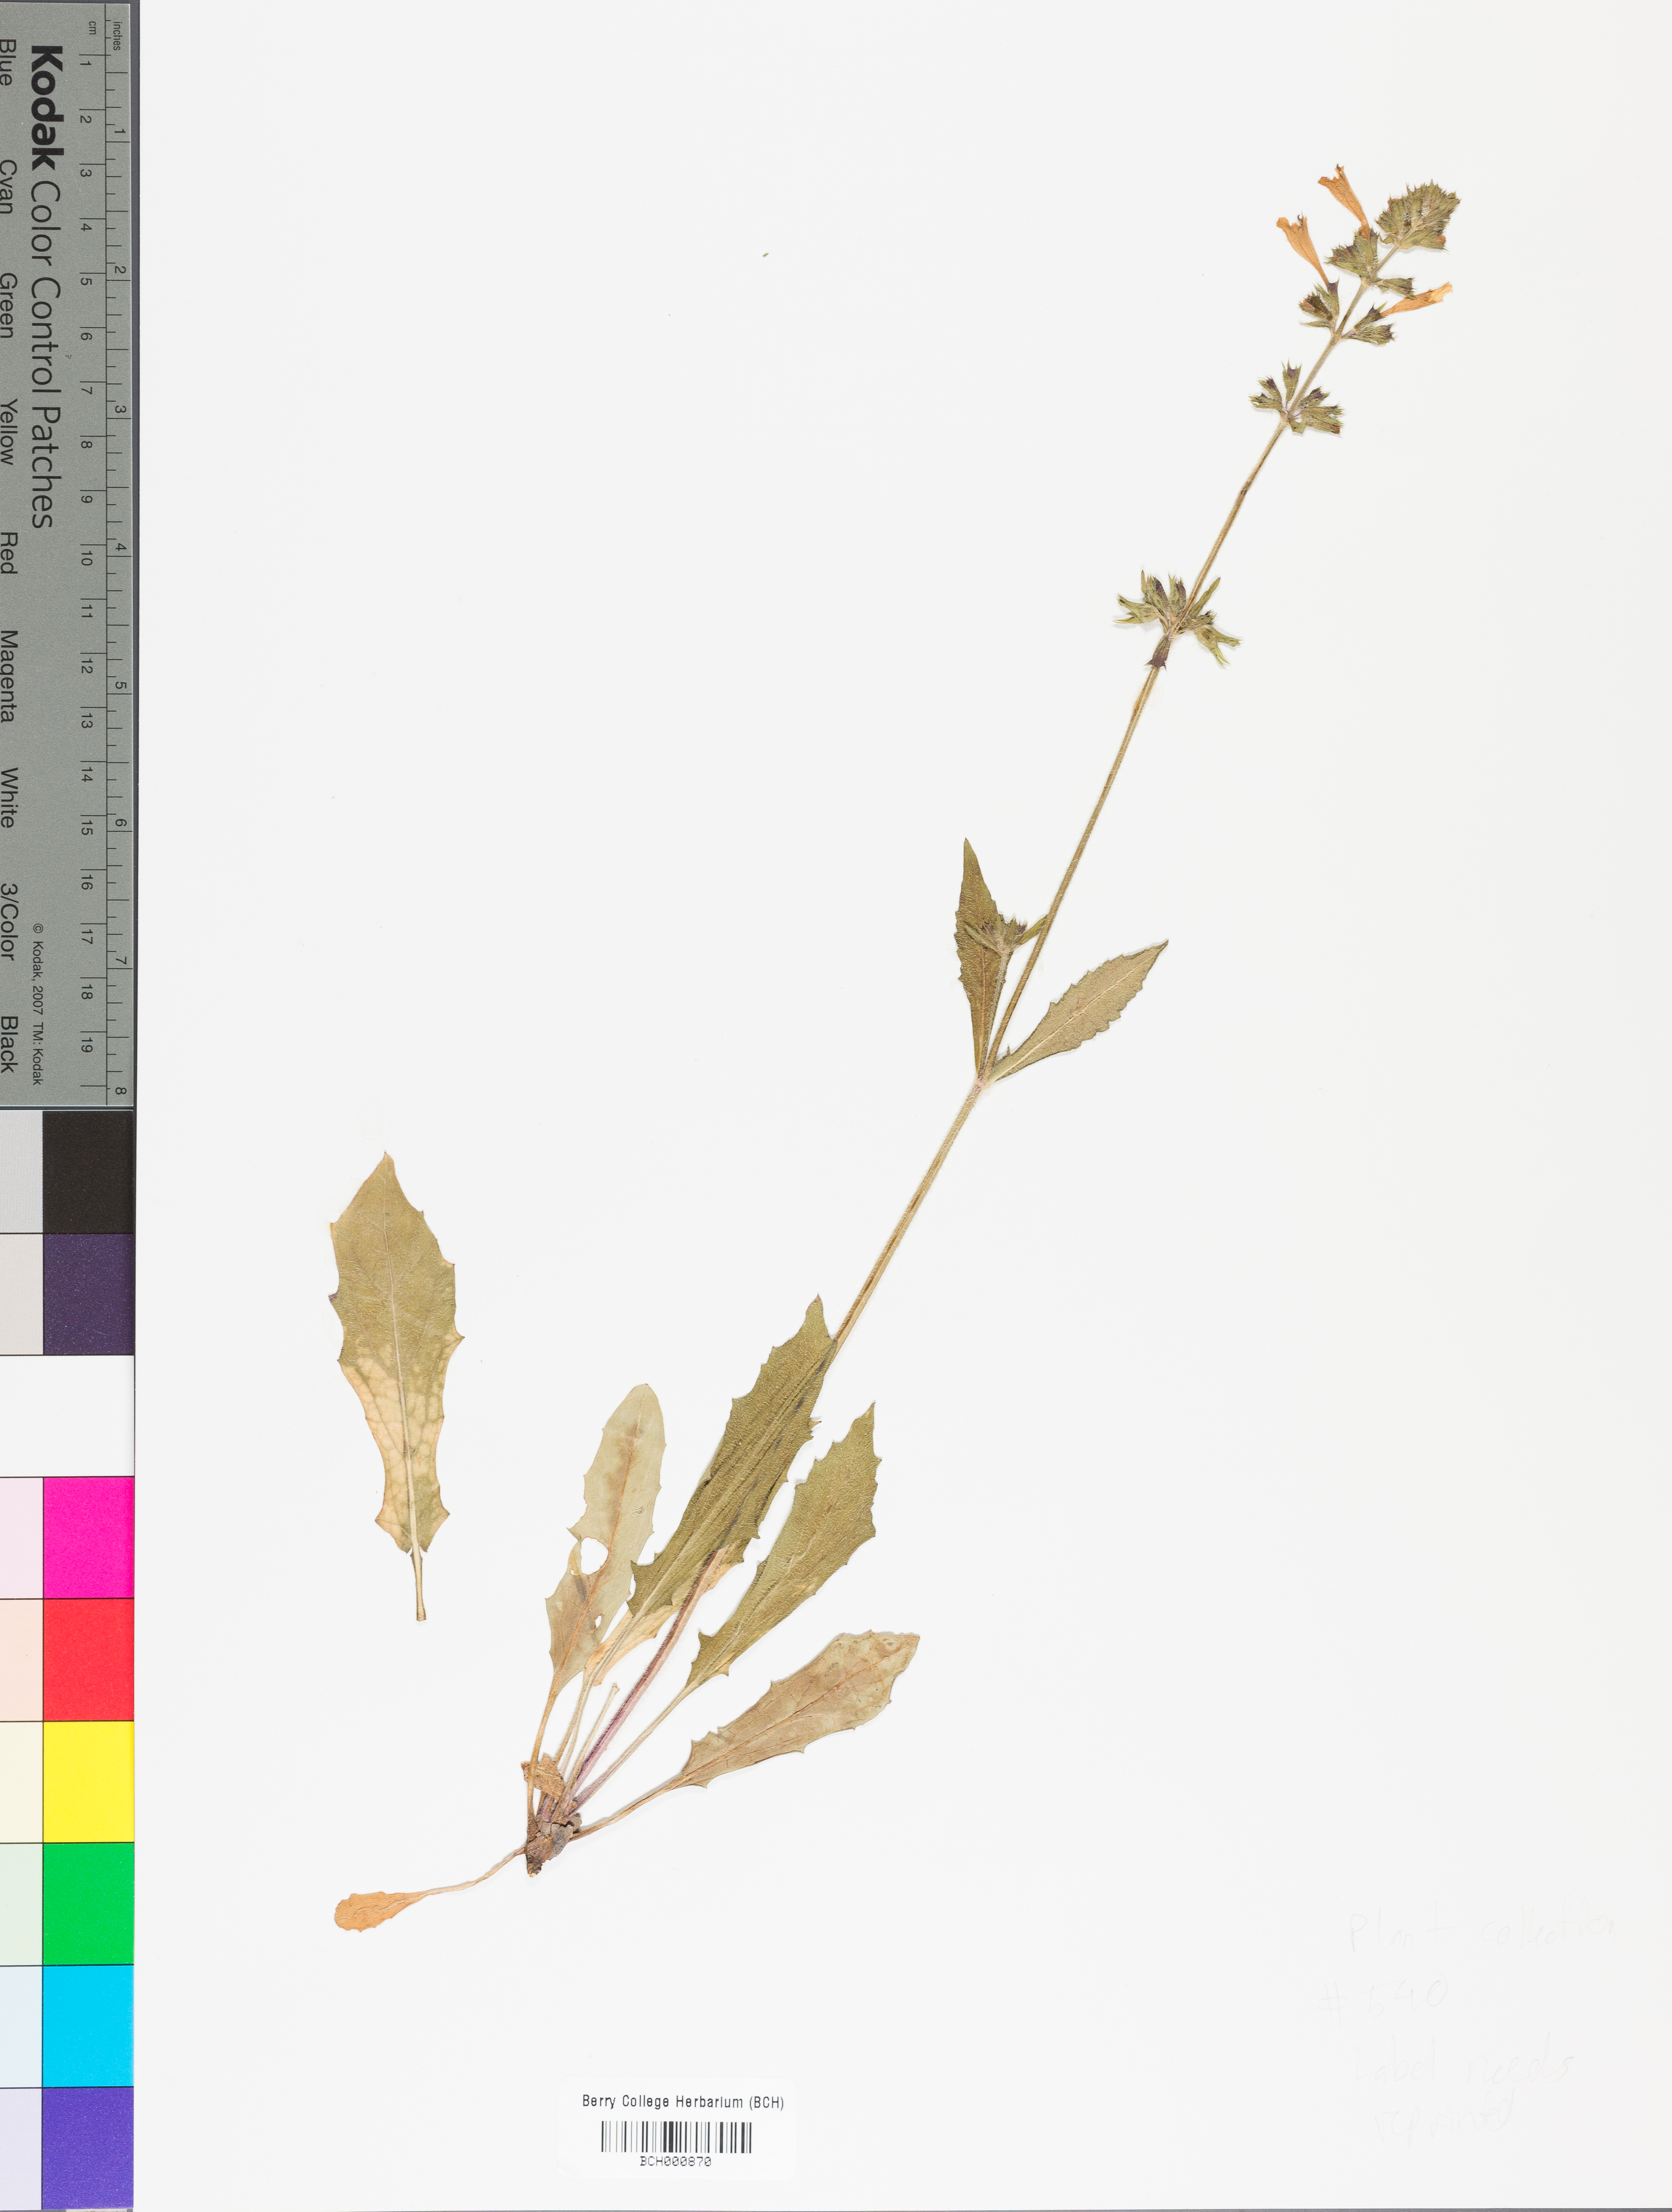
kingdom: Plantae
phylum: Tracheophyta
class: Magnoliopsida
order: Lamiales
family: Lamiaceae
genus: Salvia
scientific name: Salvia lyrata
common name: Cancerweed
